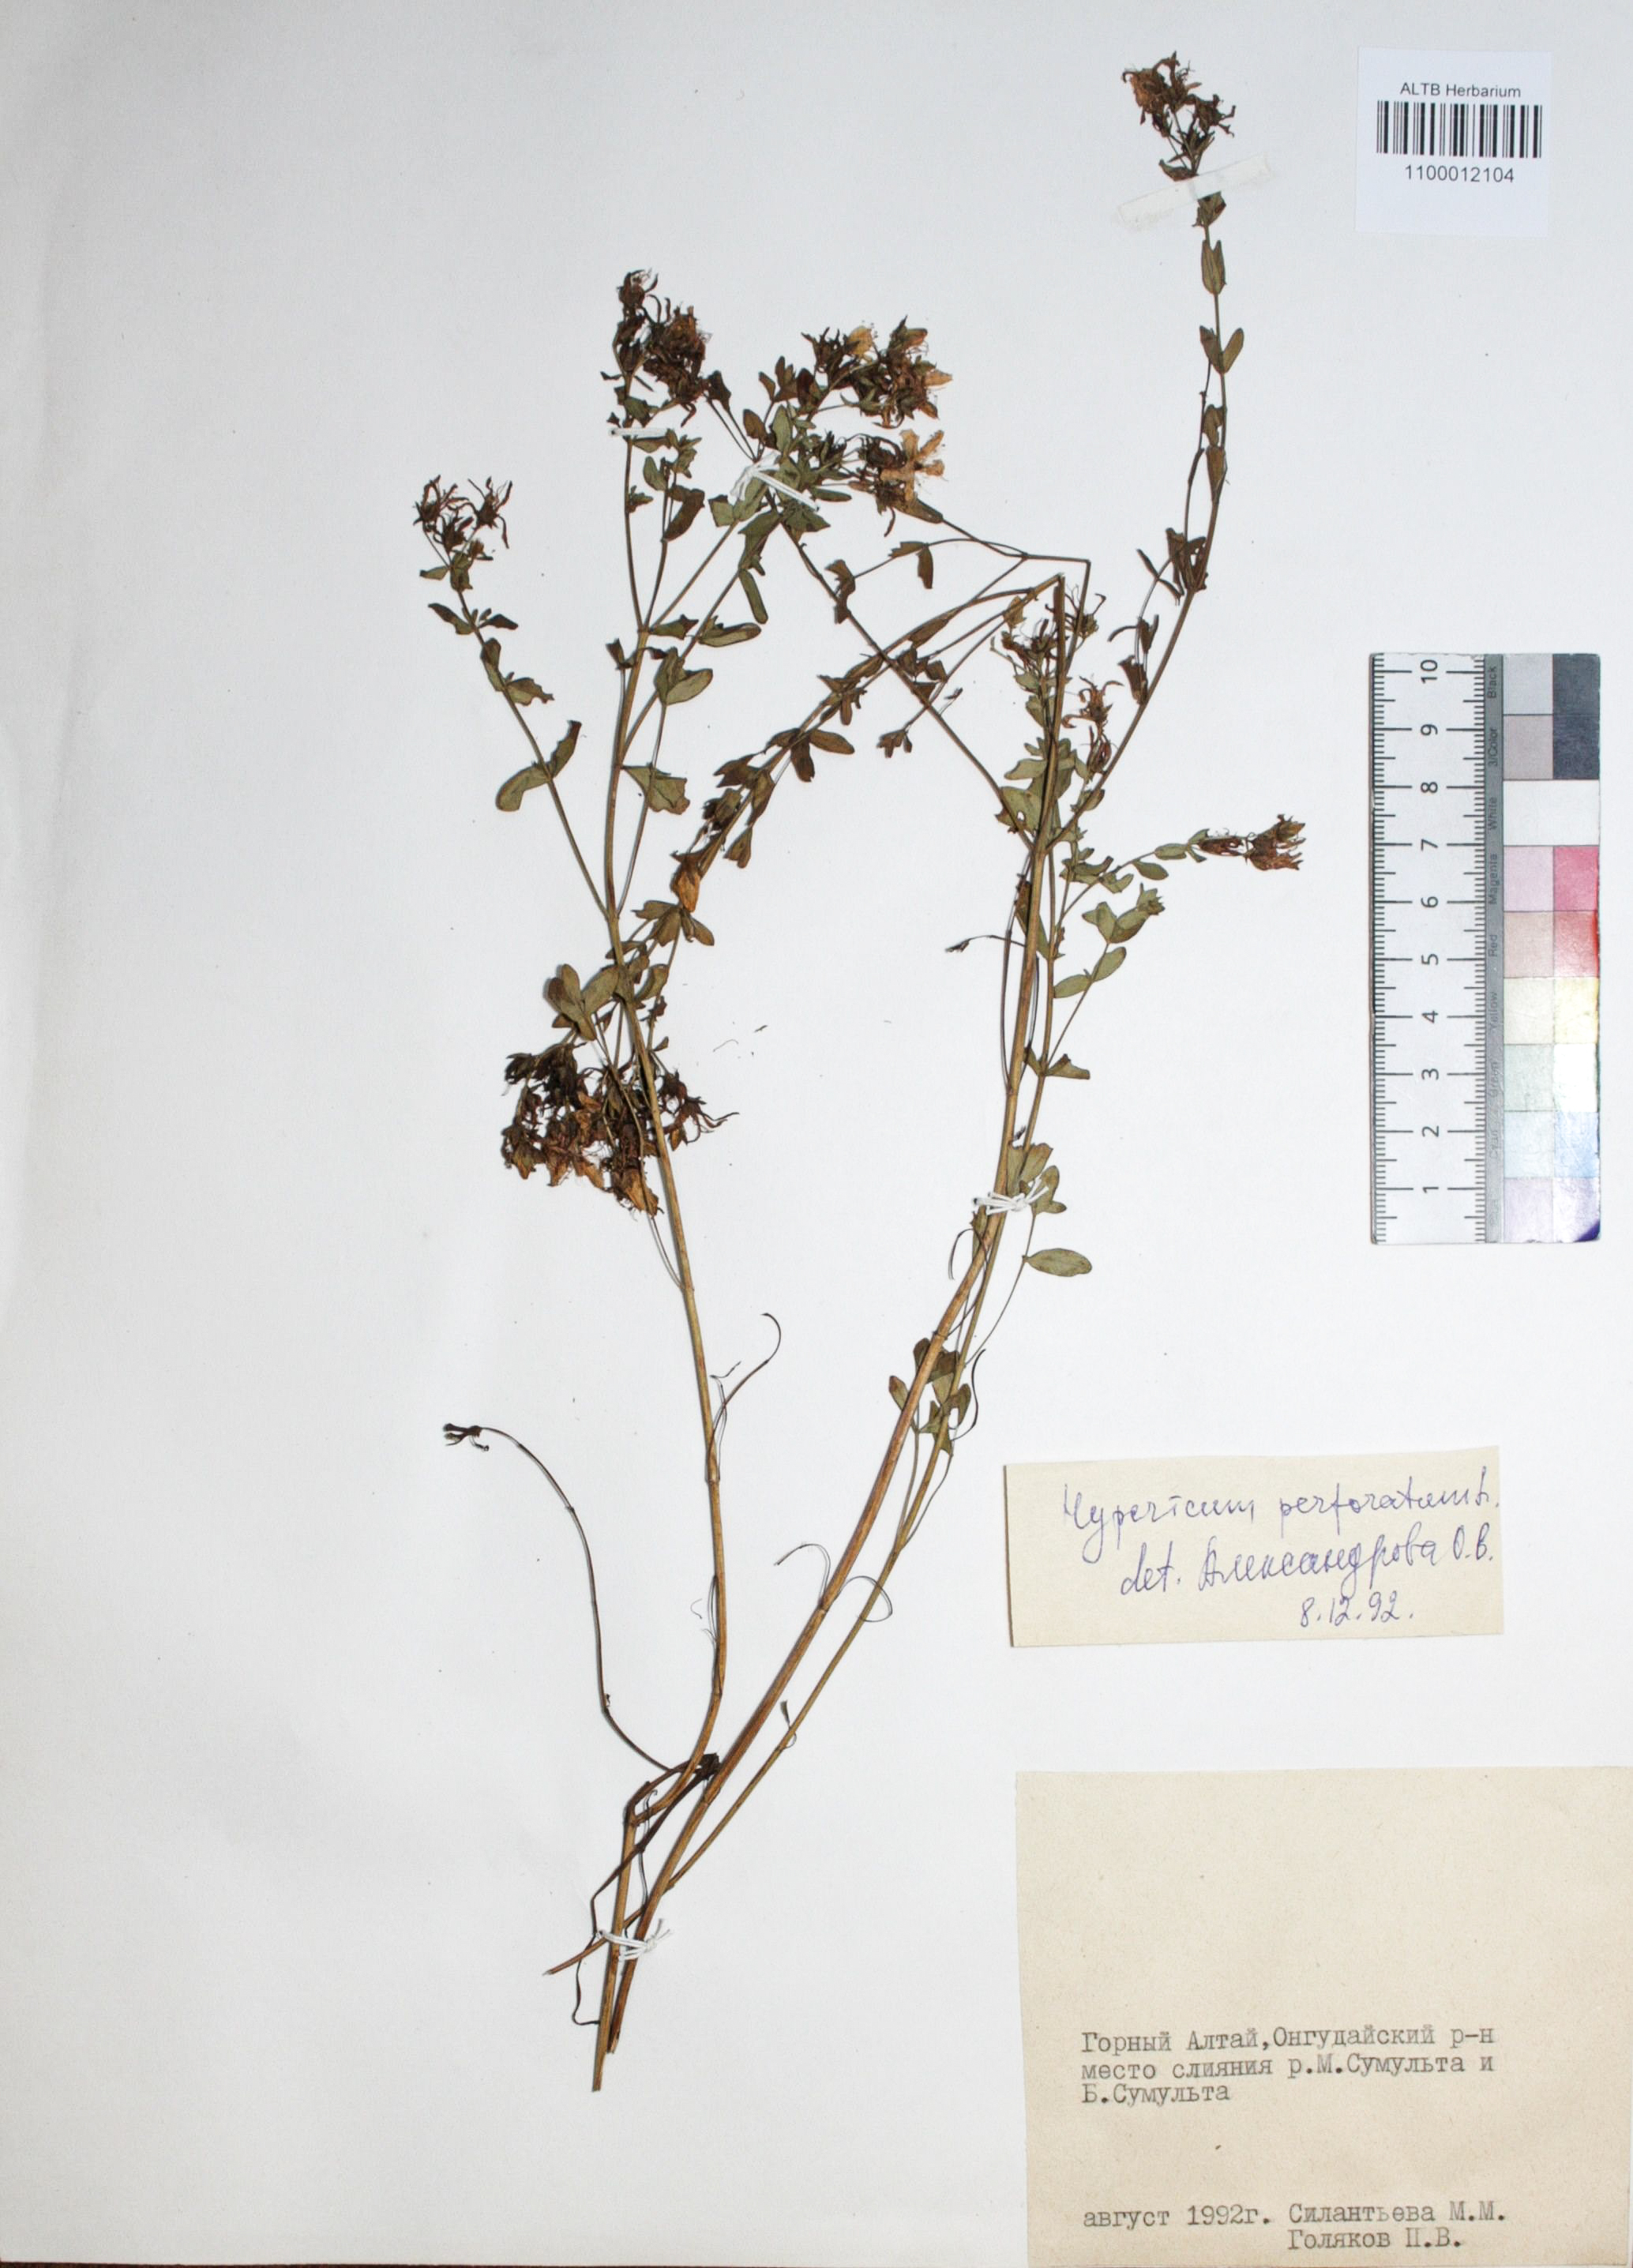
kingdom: Plantae
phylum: Tracheophyta
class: Magnoliopsida
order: Malpighiales
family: Hypericaceae
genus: Hypericum
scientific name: Hypericum perforatum
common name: Common st. johnswort
